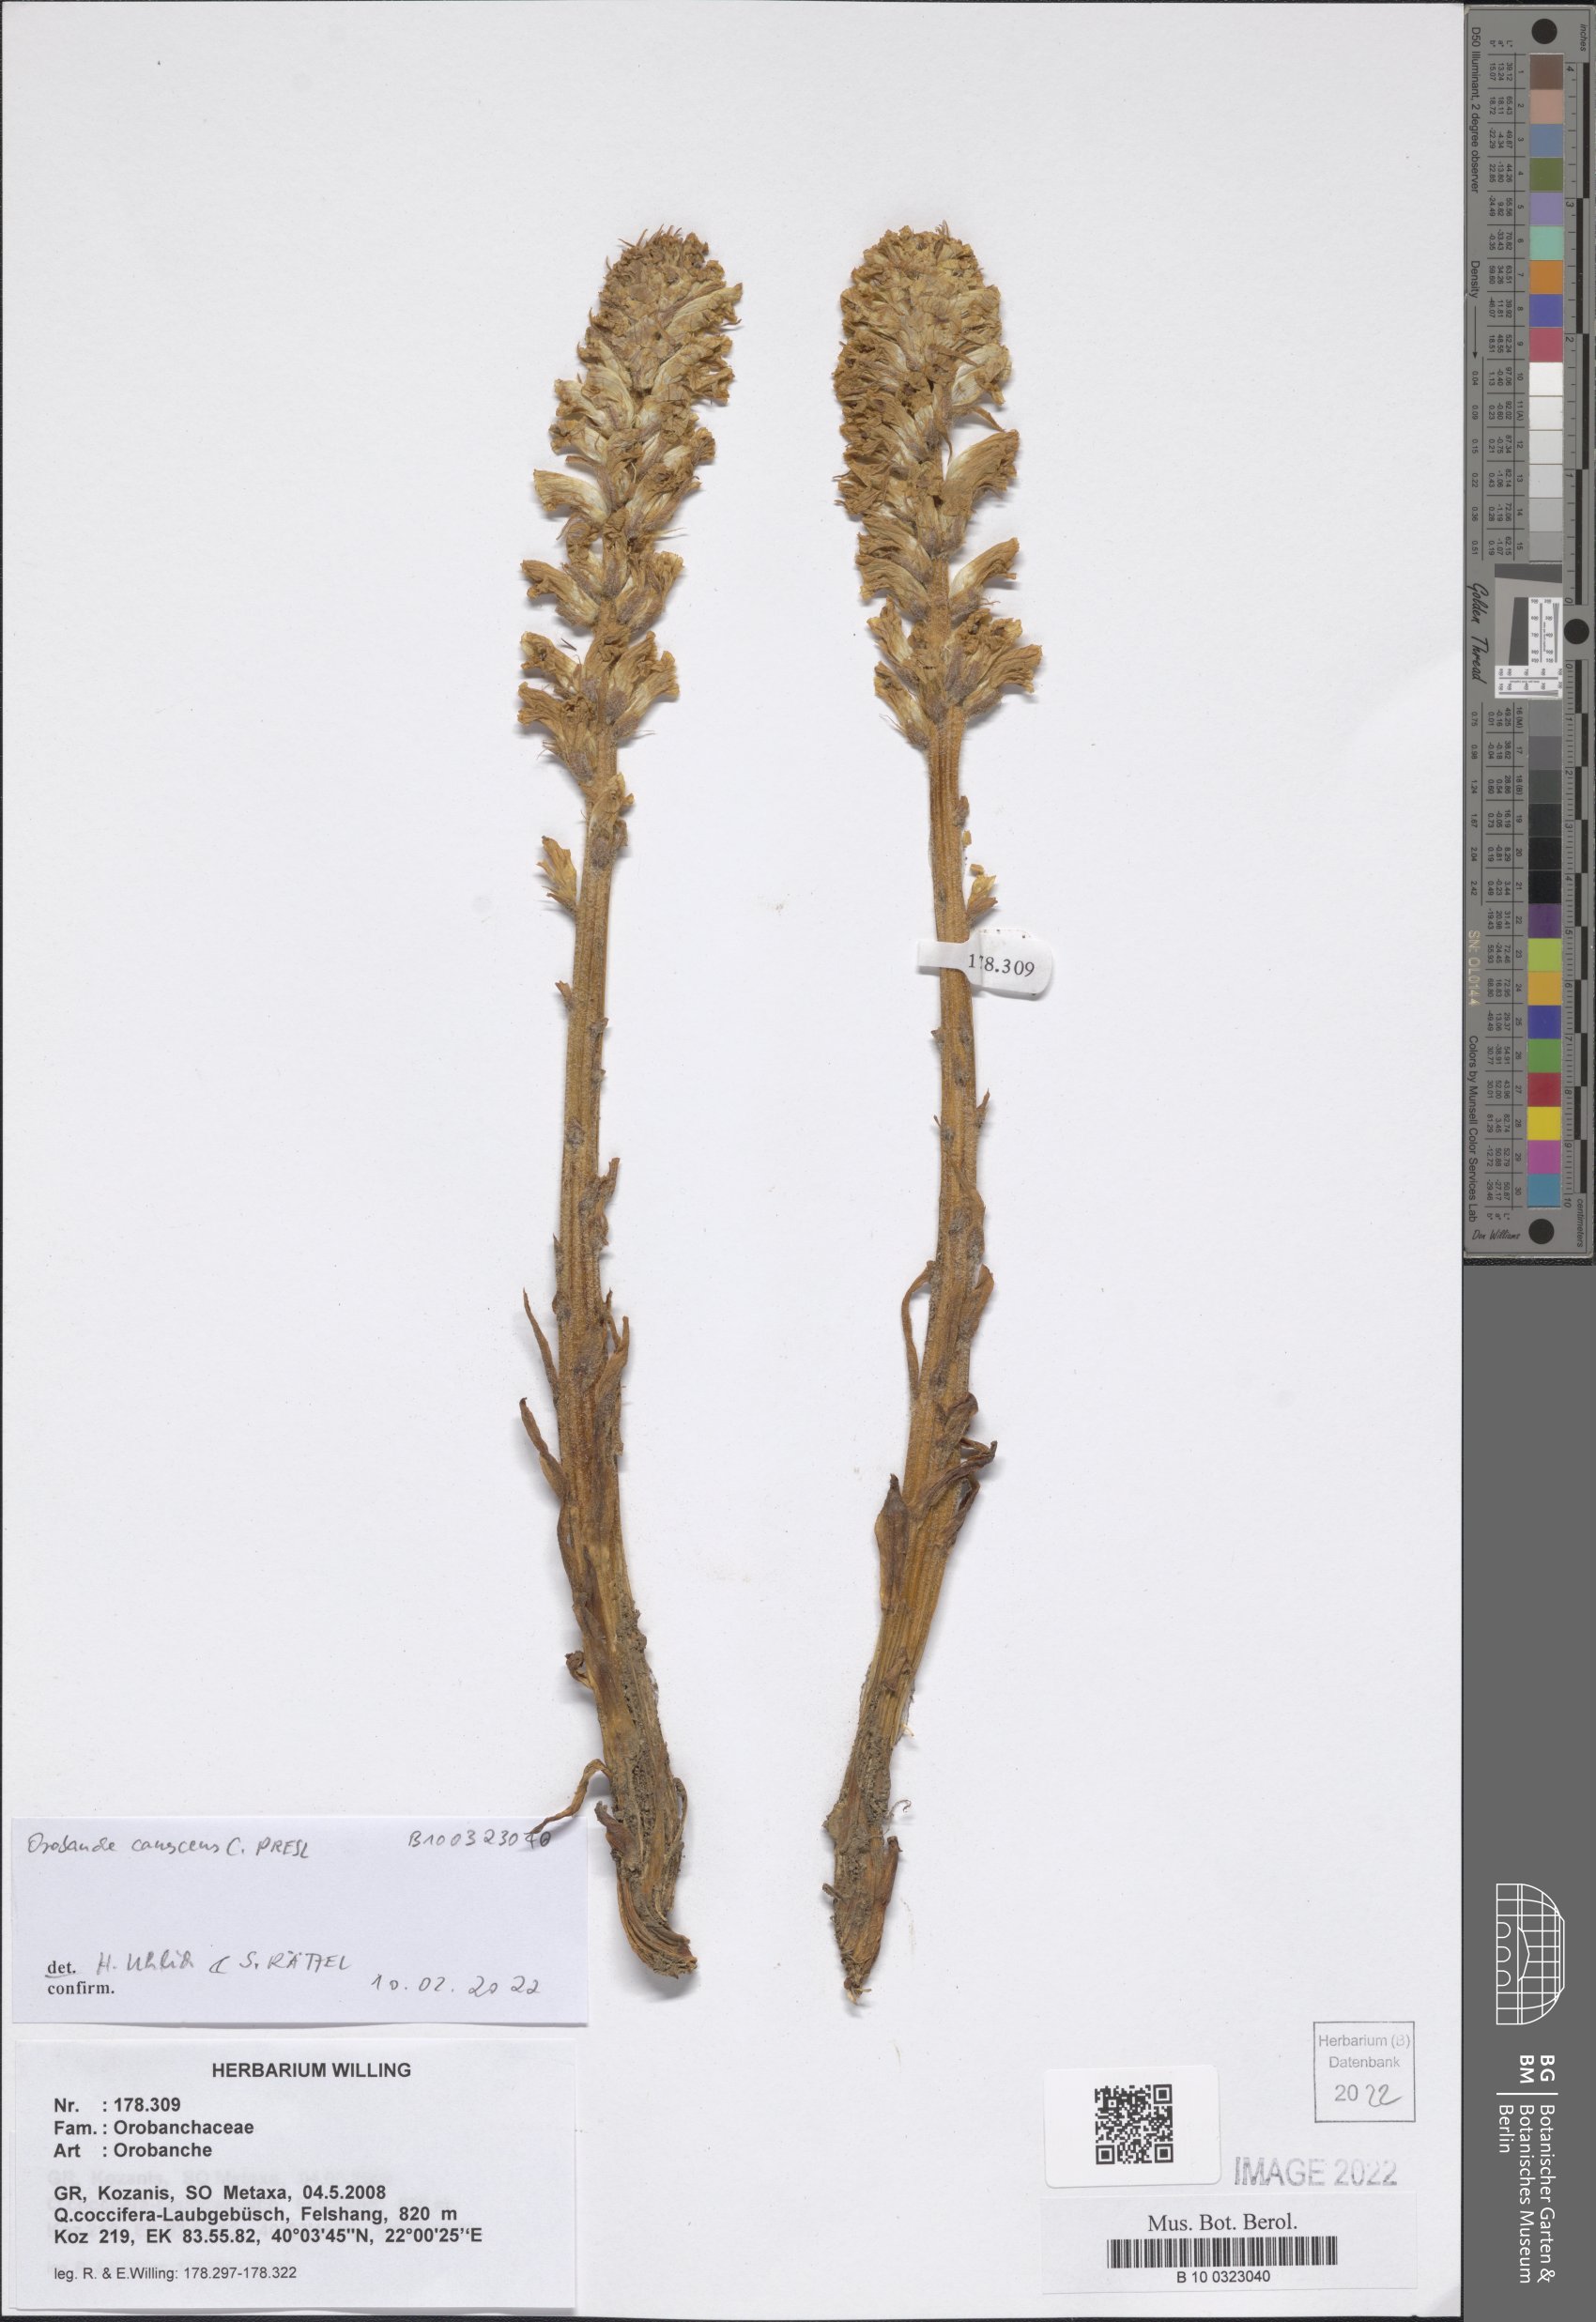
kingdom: Plantae
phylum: Tracheophyta
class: Magnoliopsida
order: Lamiales
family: Orobanchaceae
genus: Orobanche
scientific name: Orobanche canescens
